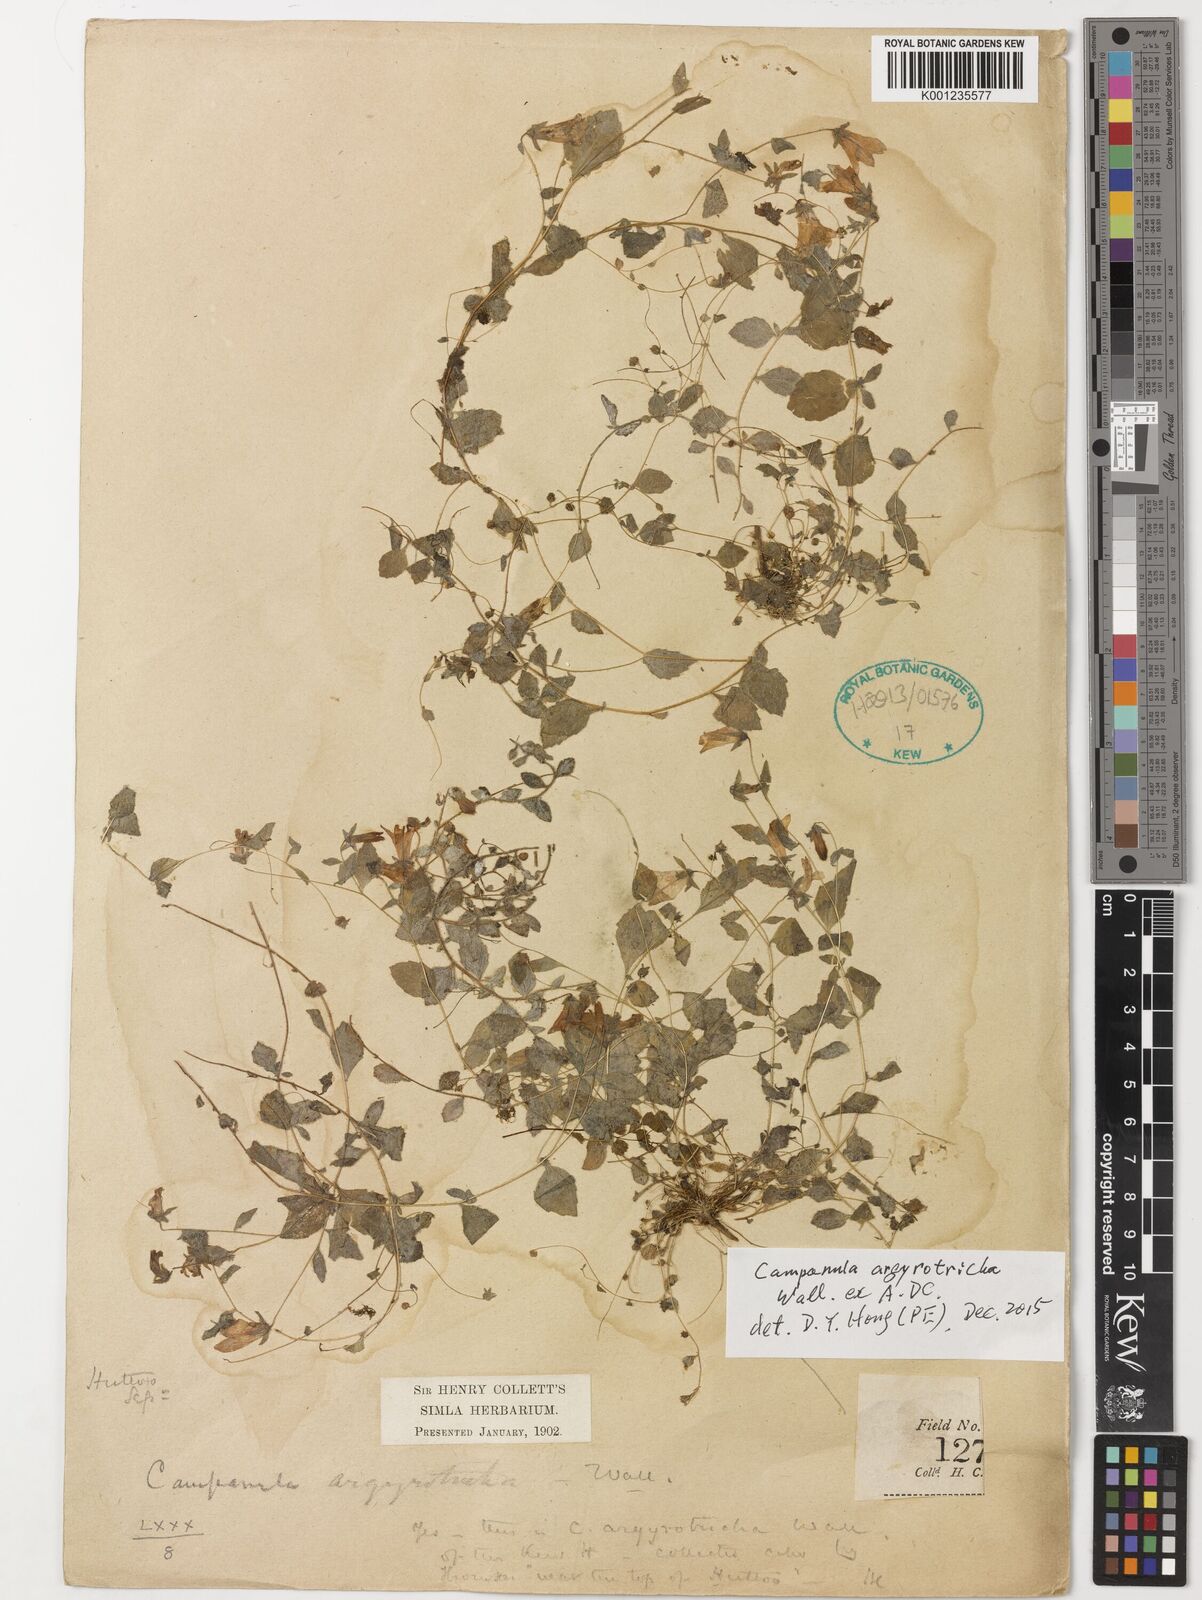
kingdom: Plantae
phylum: Tracheophyta
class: Magnoliopsida
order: Asterales
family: Campanulaceae
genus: Campanula
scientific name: Campanula argyrotricha
